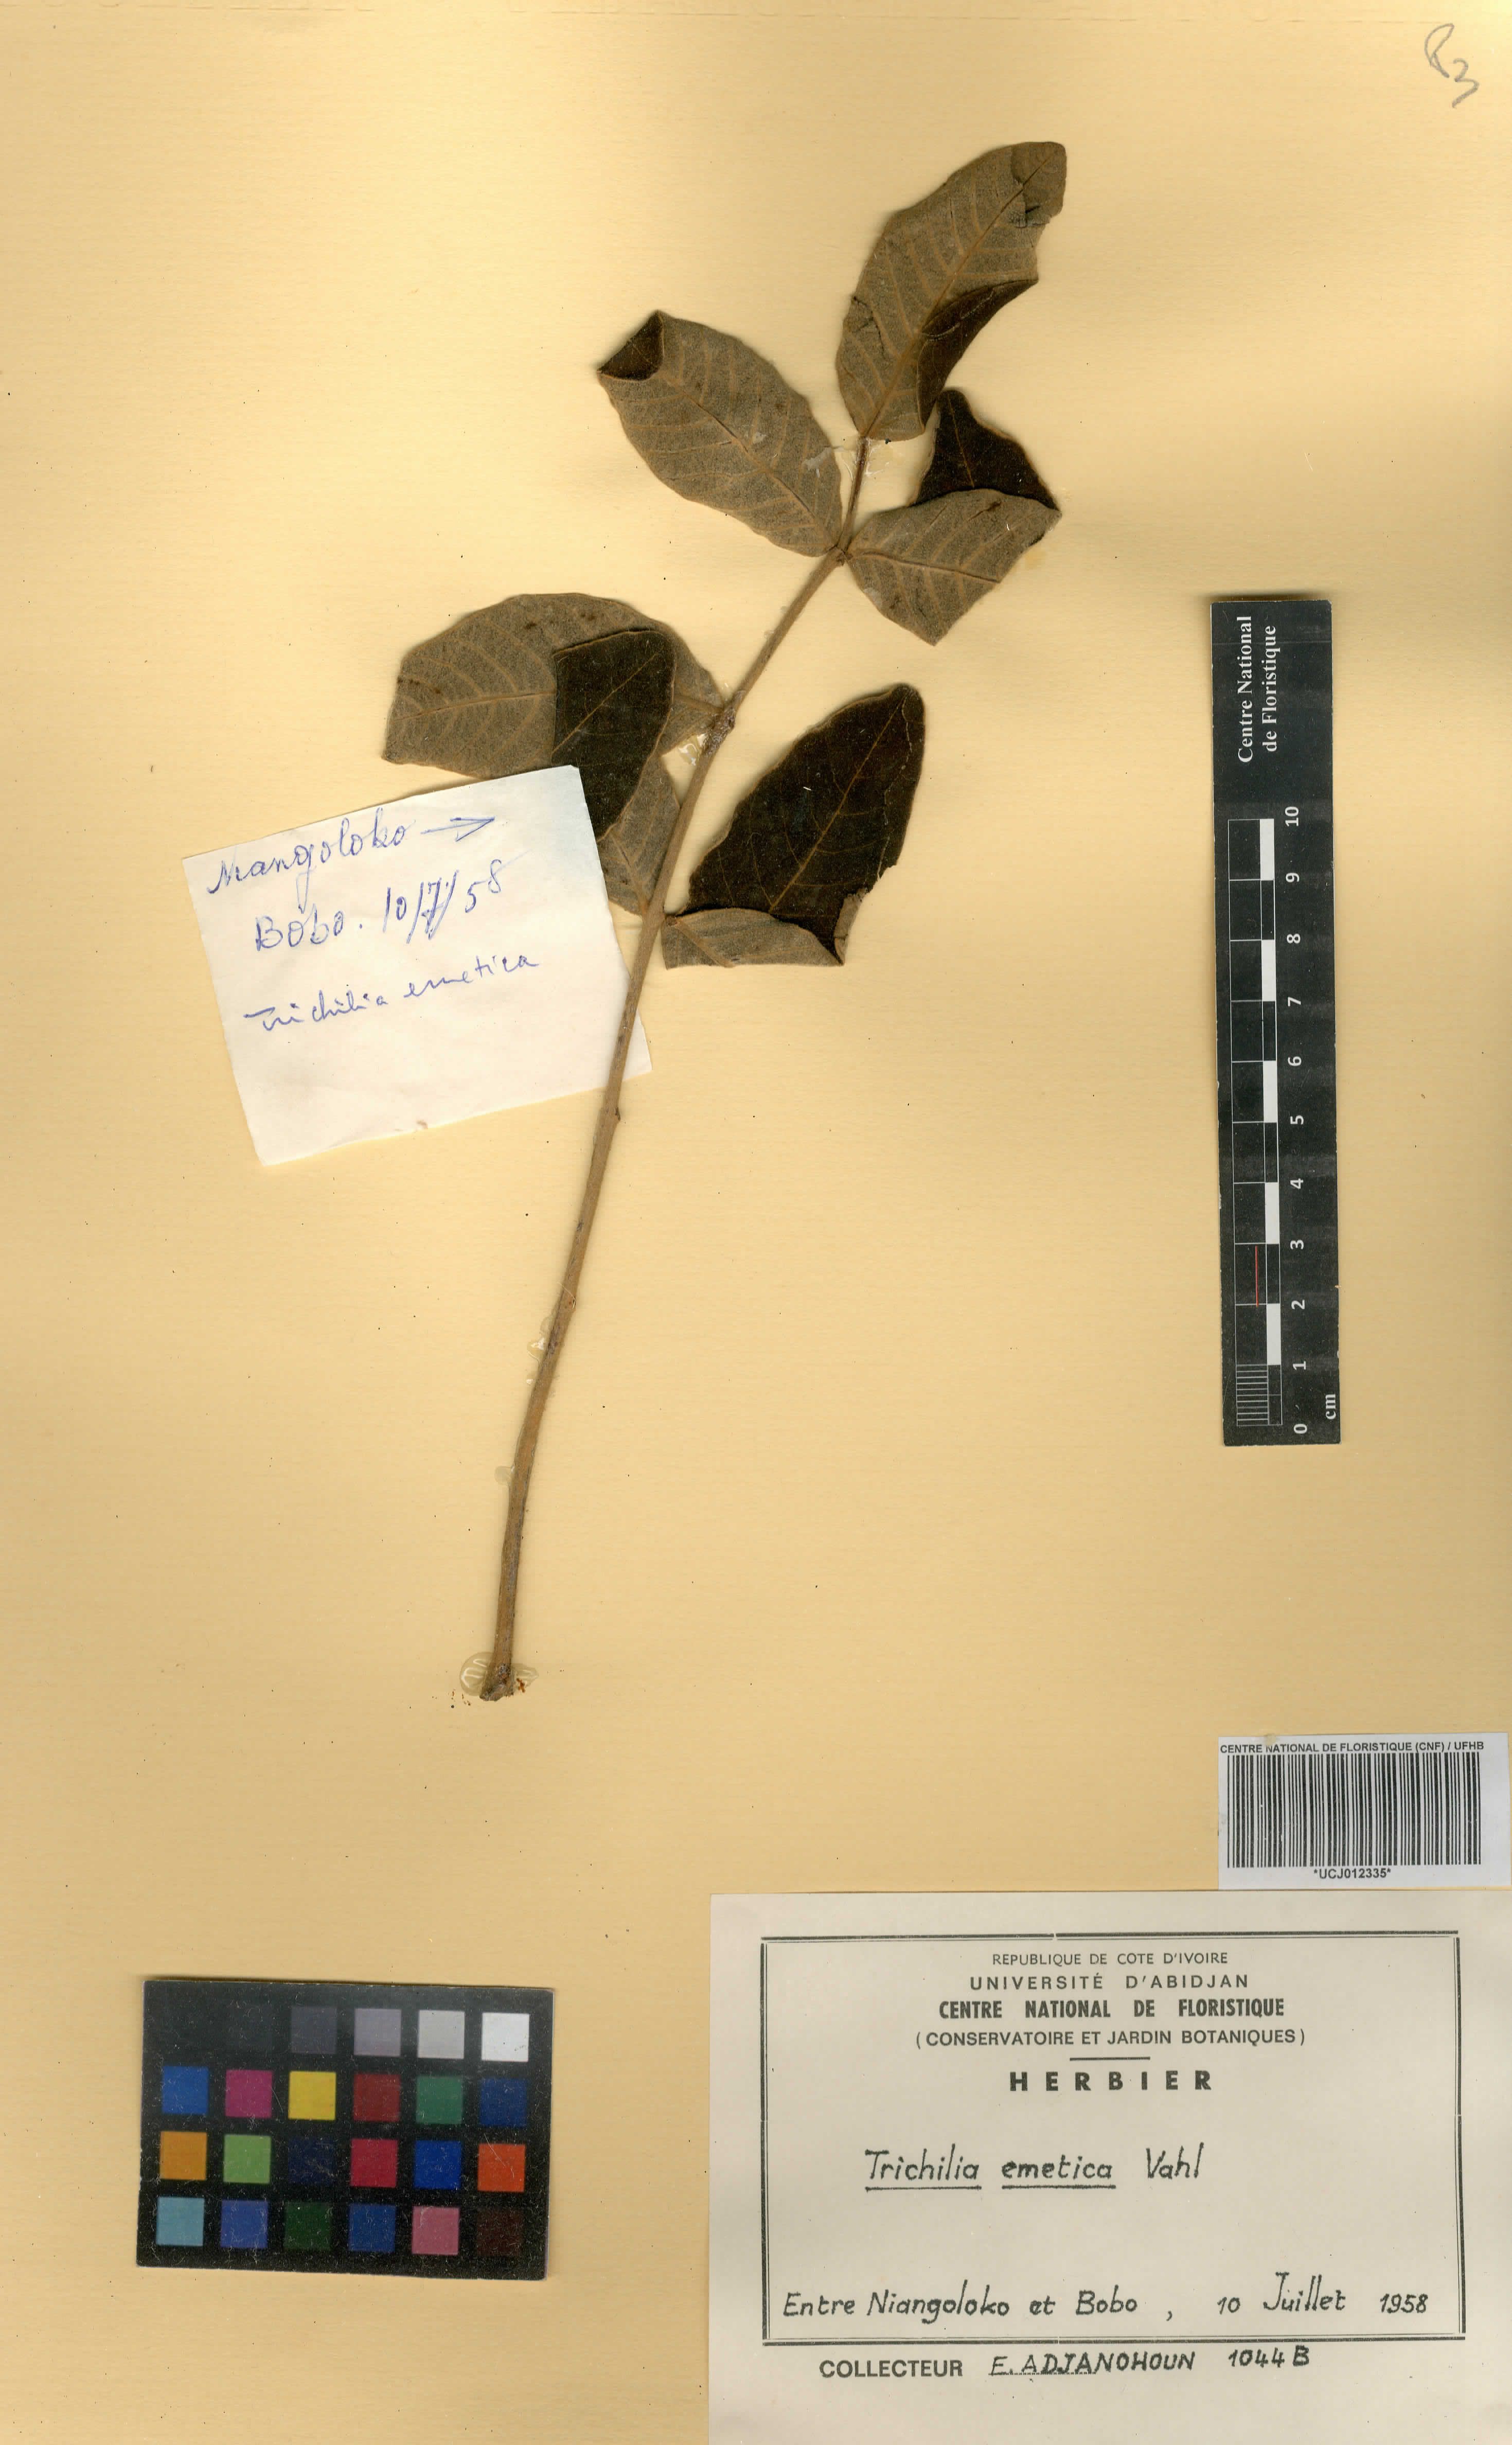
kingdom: Plantae
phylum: Tracheophyta
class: Magnoliopsida
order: Sapindales
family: Meliaceae
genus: Trichilia
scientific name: Trichilia emetica
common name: Christmas-bells
